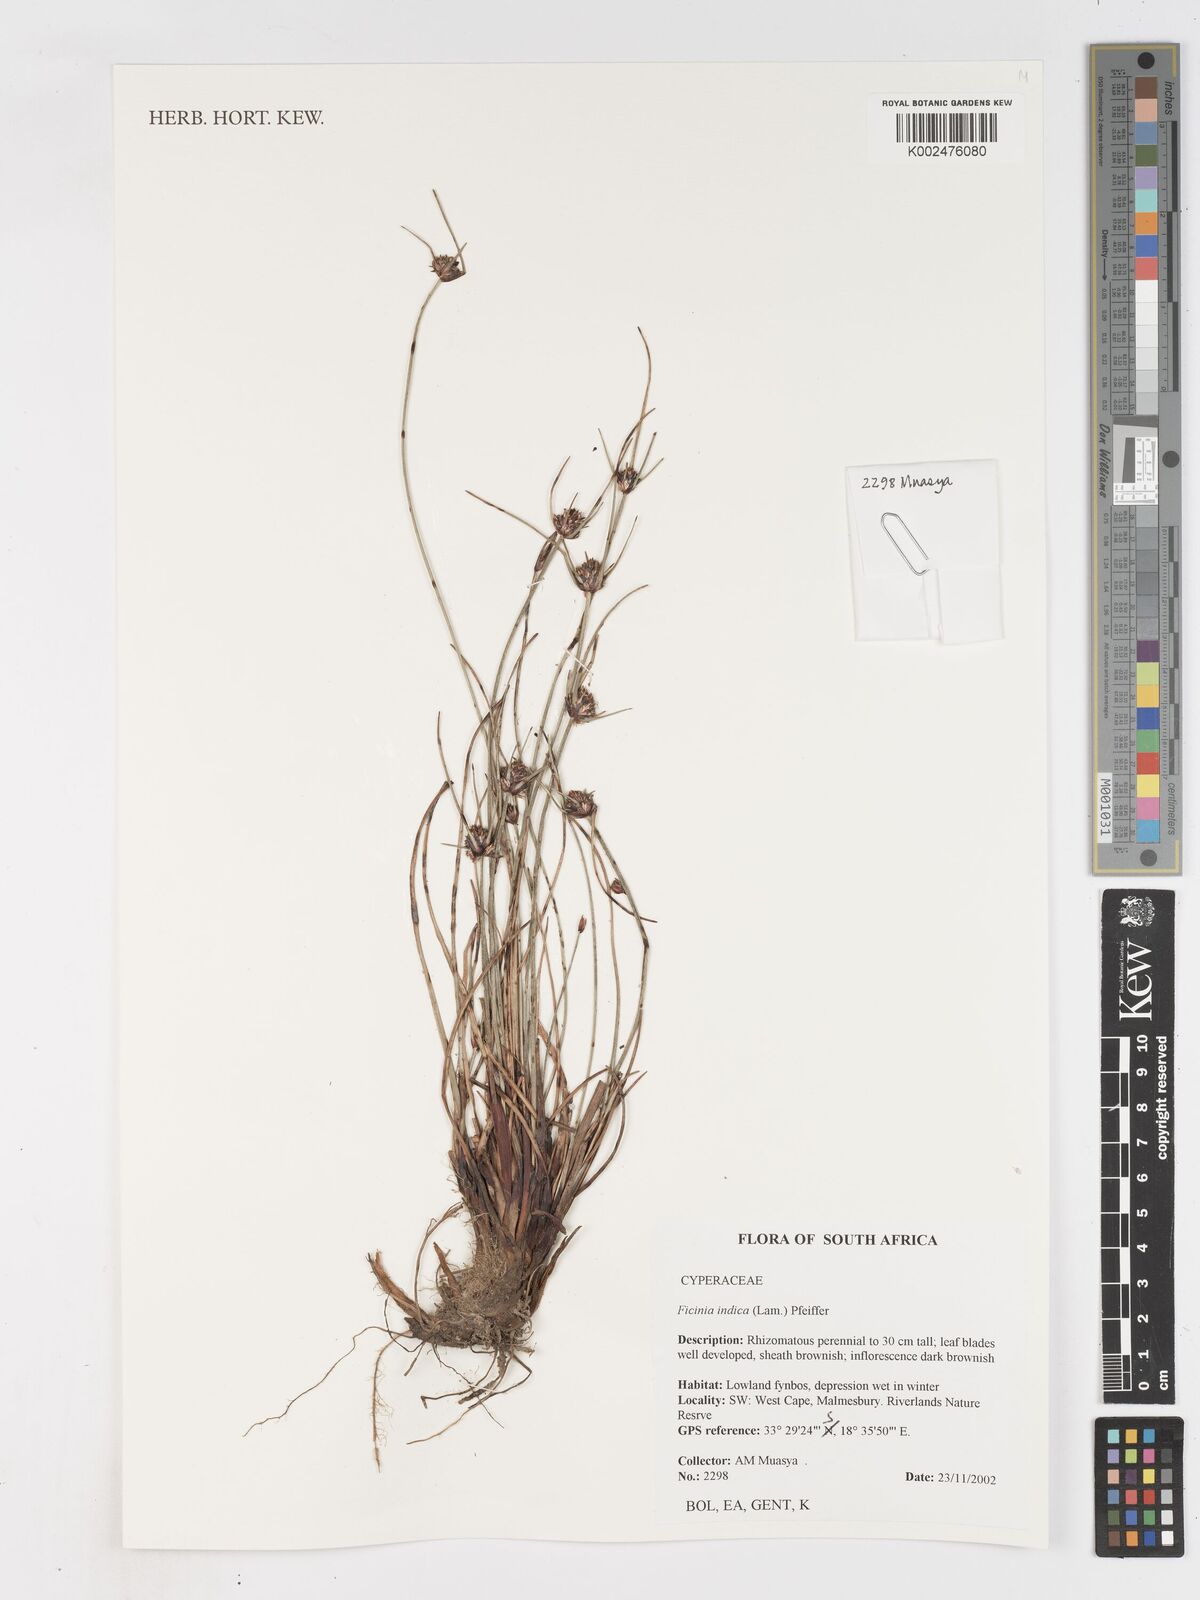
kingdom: Plantae
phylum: Tracheophyta
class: Liliopsida
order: Poales
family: Cyperaceae
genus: Ficinia
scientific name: Ficinia indica
